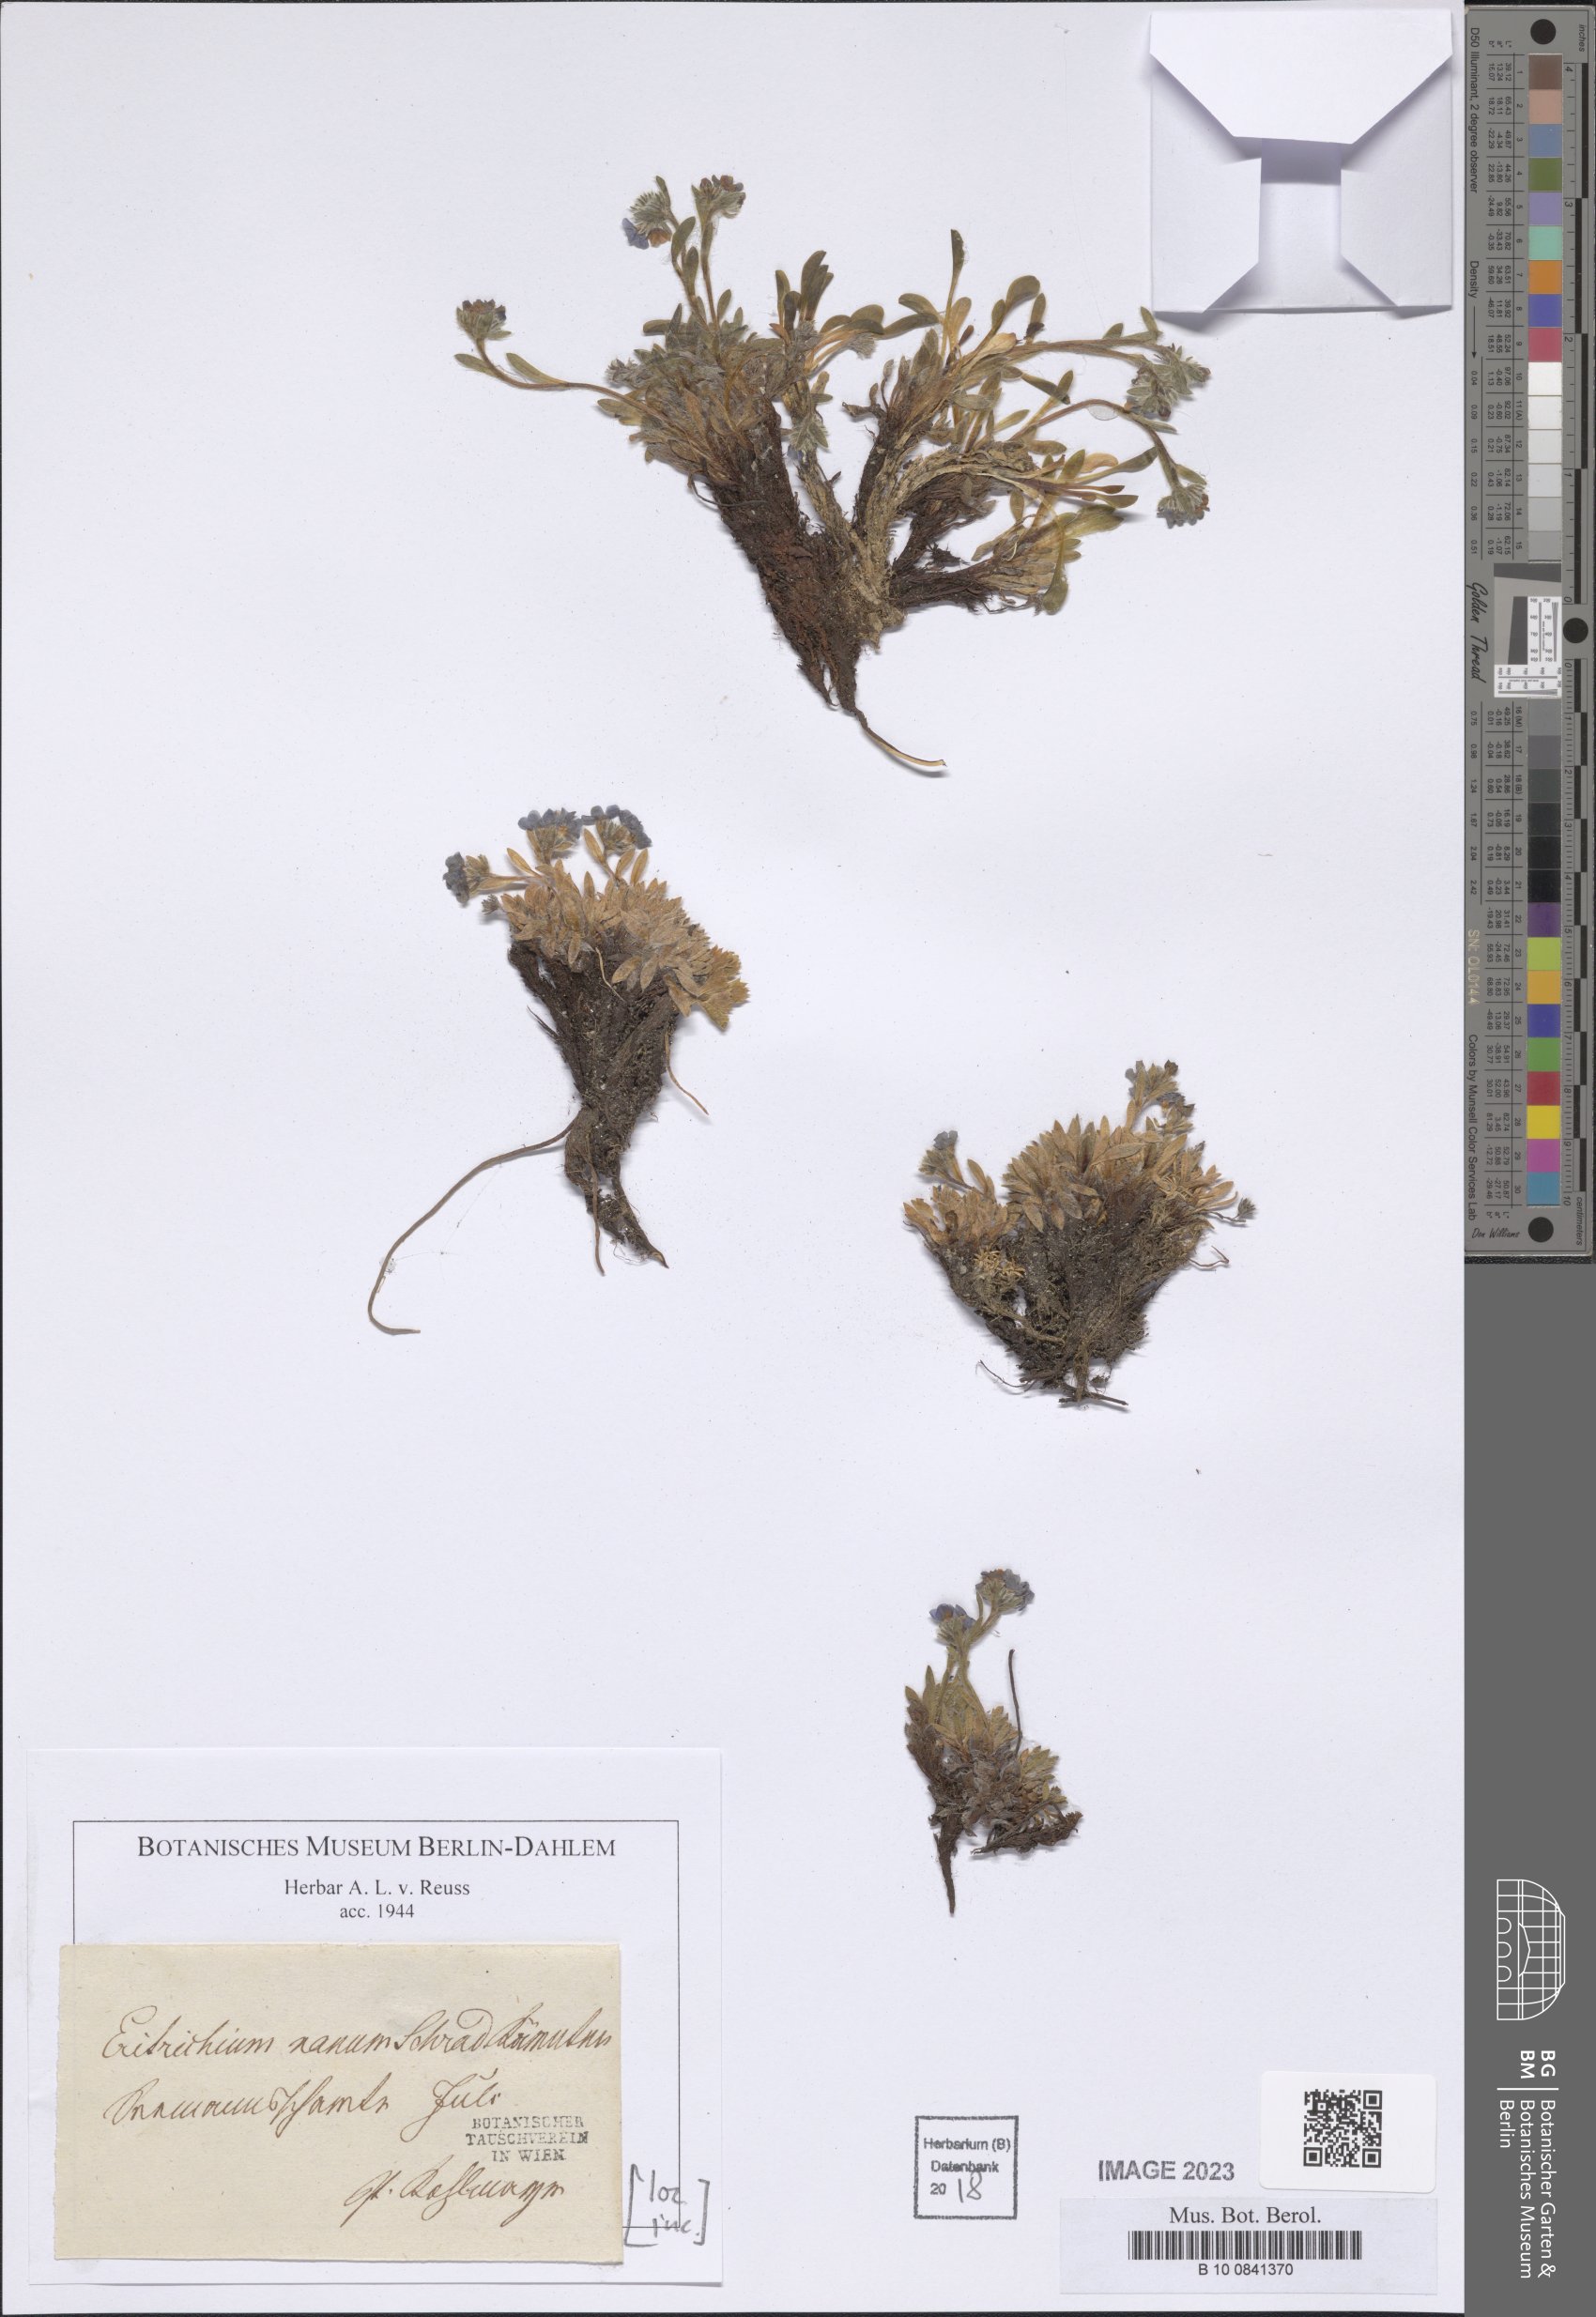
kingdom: Plantae
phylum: Tracheophyta
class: Magnoliopsida
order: Boraginales
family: Boraginaceae
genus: Eritrichium
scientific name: Eritrichium nanum
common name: King-of-the-alps
